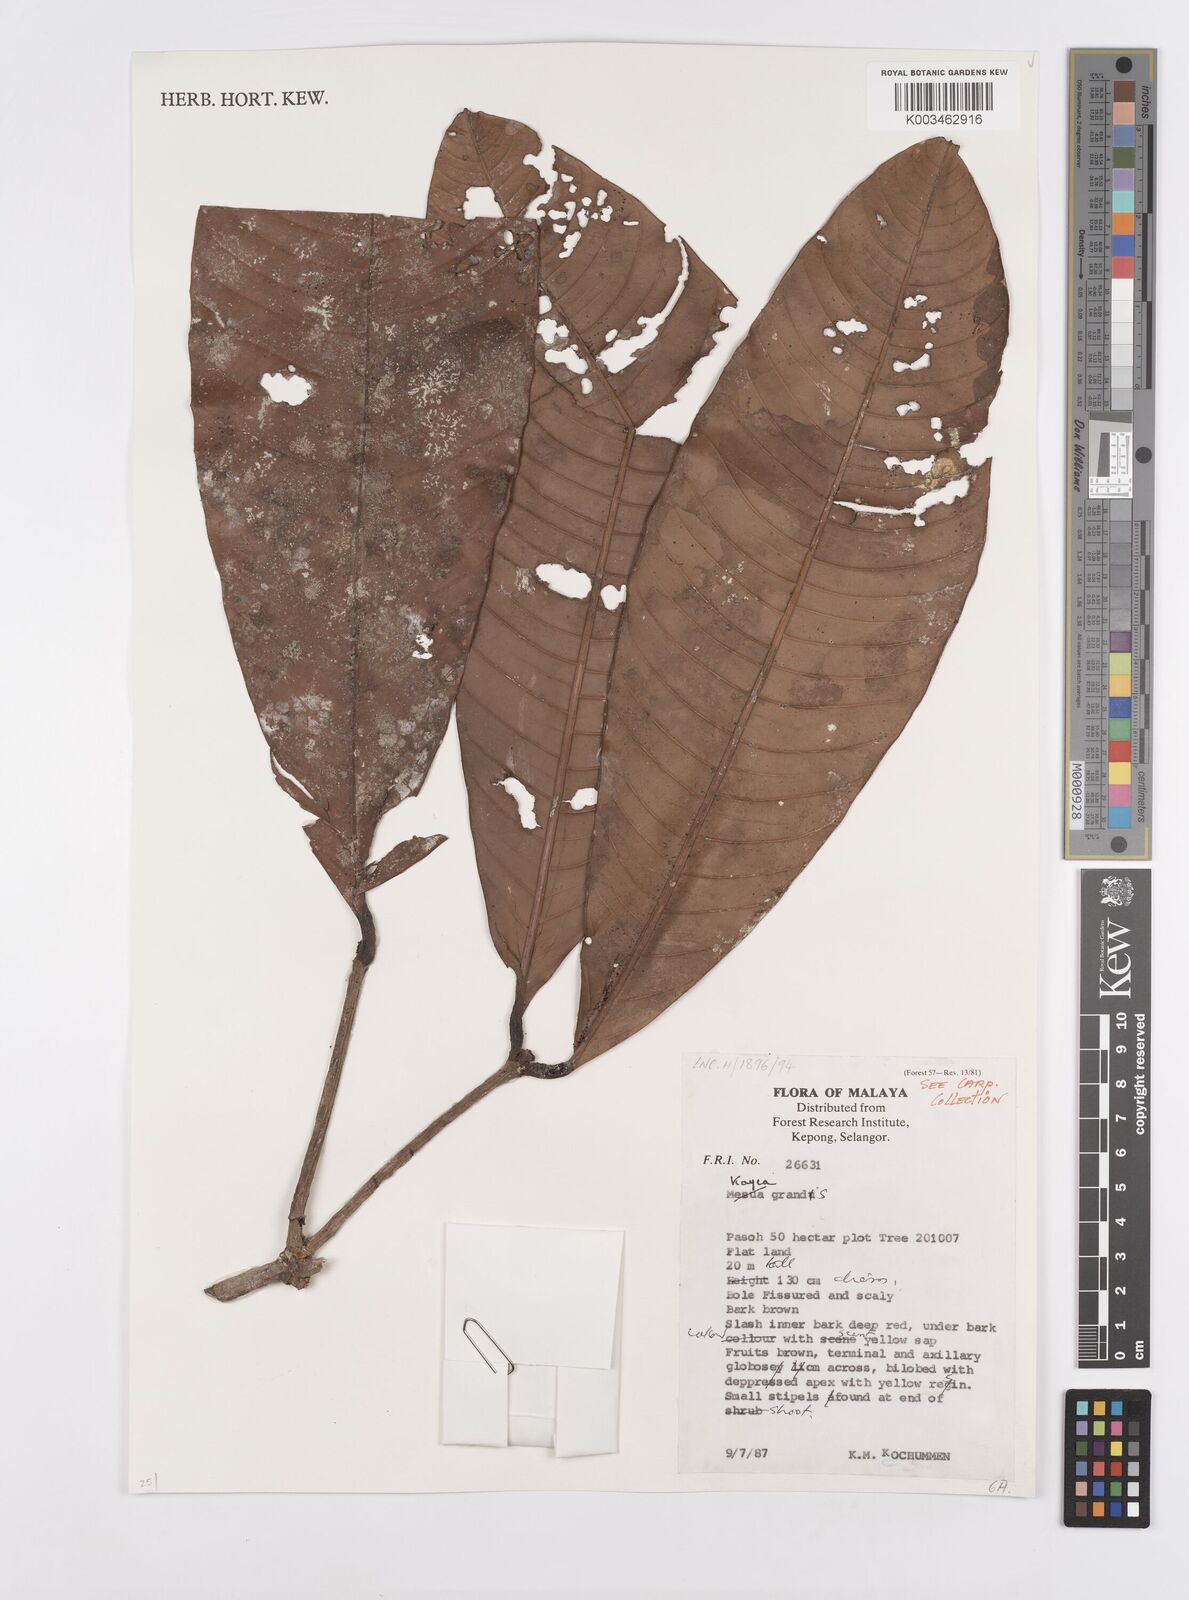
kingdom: Plantae
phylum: Tracheophyta
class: Magnoliopsida
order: Malpighiales
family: Calophyllaceae
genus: Kayea
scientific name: Kayea grandis
